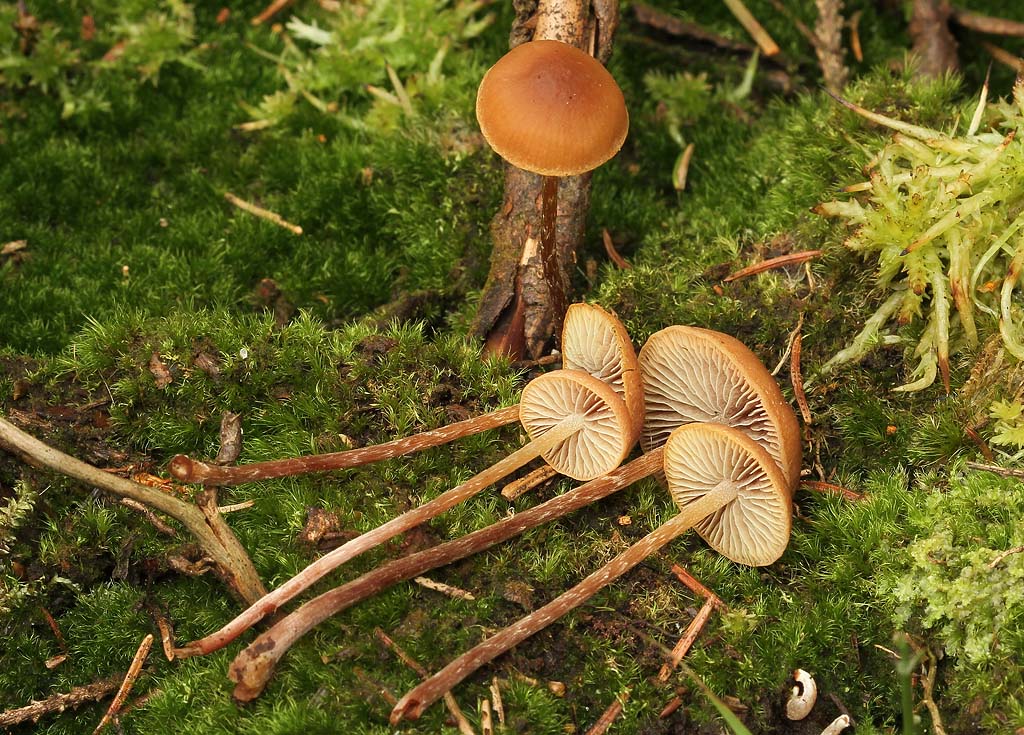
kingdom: Fungi
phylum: Basidiomycota
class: Agaricomycetes
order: Agaricales
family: Strophariaceae
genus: Bogbodia
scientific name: Bogbodia uda
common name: tørve-svovlhat
